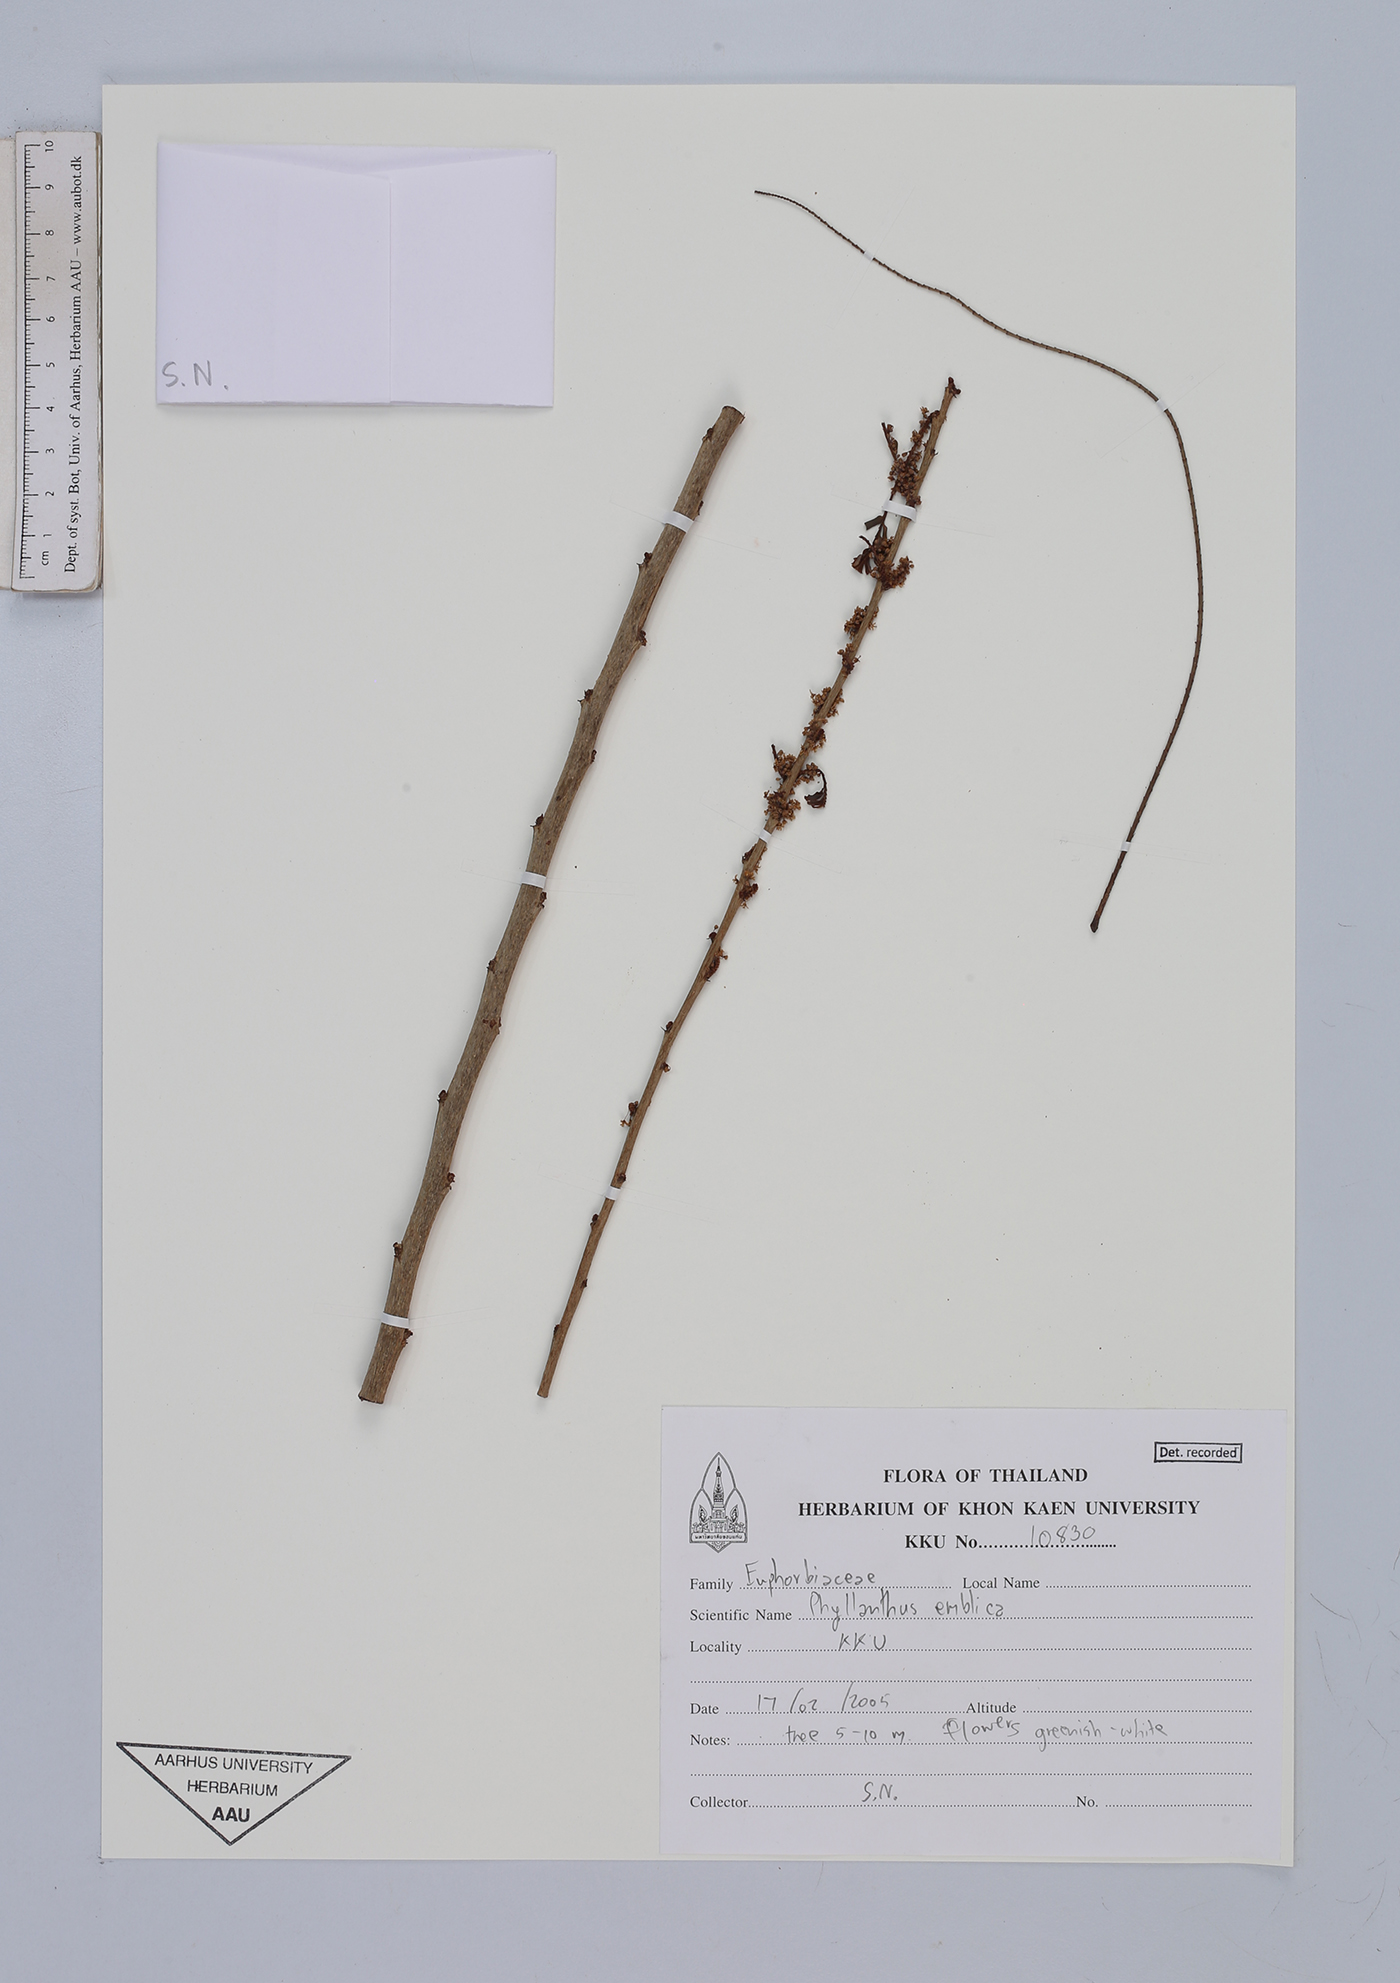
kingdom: Plantae
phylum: Tracheophyta
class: Magnoliopsida
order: Malpighiales
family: Phyllanthaceae
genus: Phyllanthus
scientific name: Phyllanthus emblica
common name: Indian gooseberry
